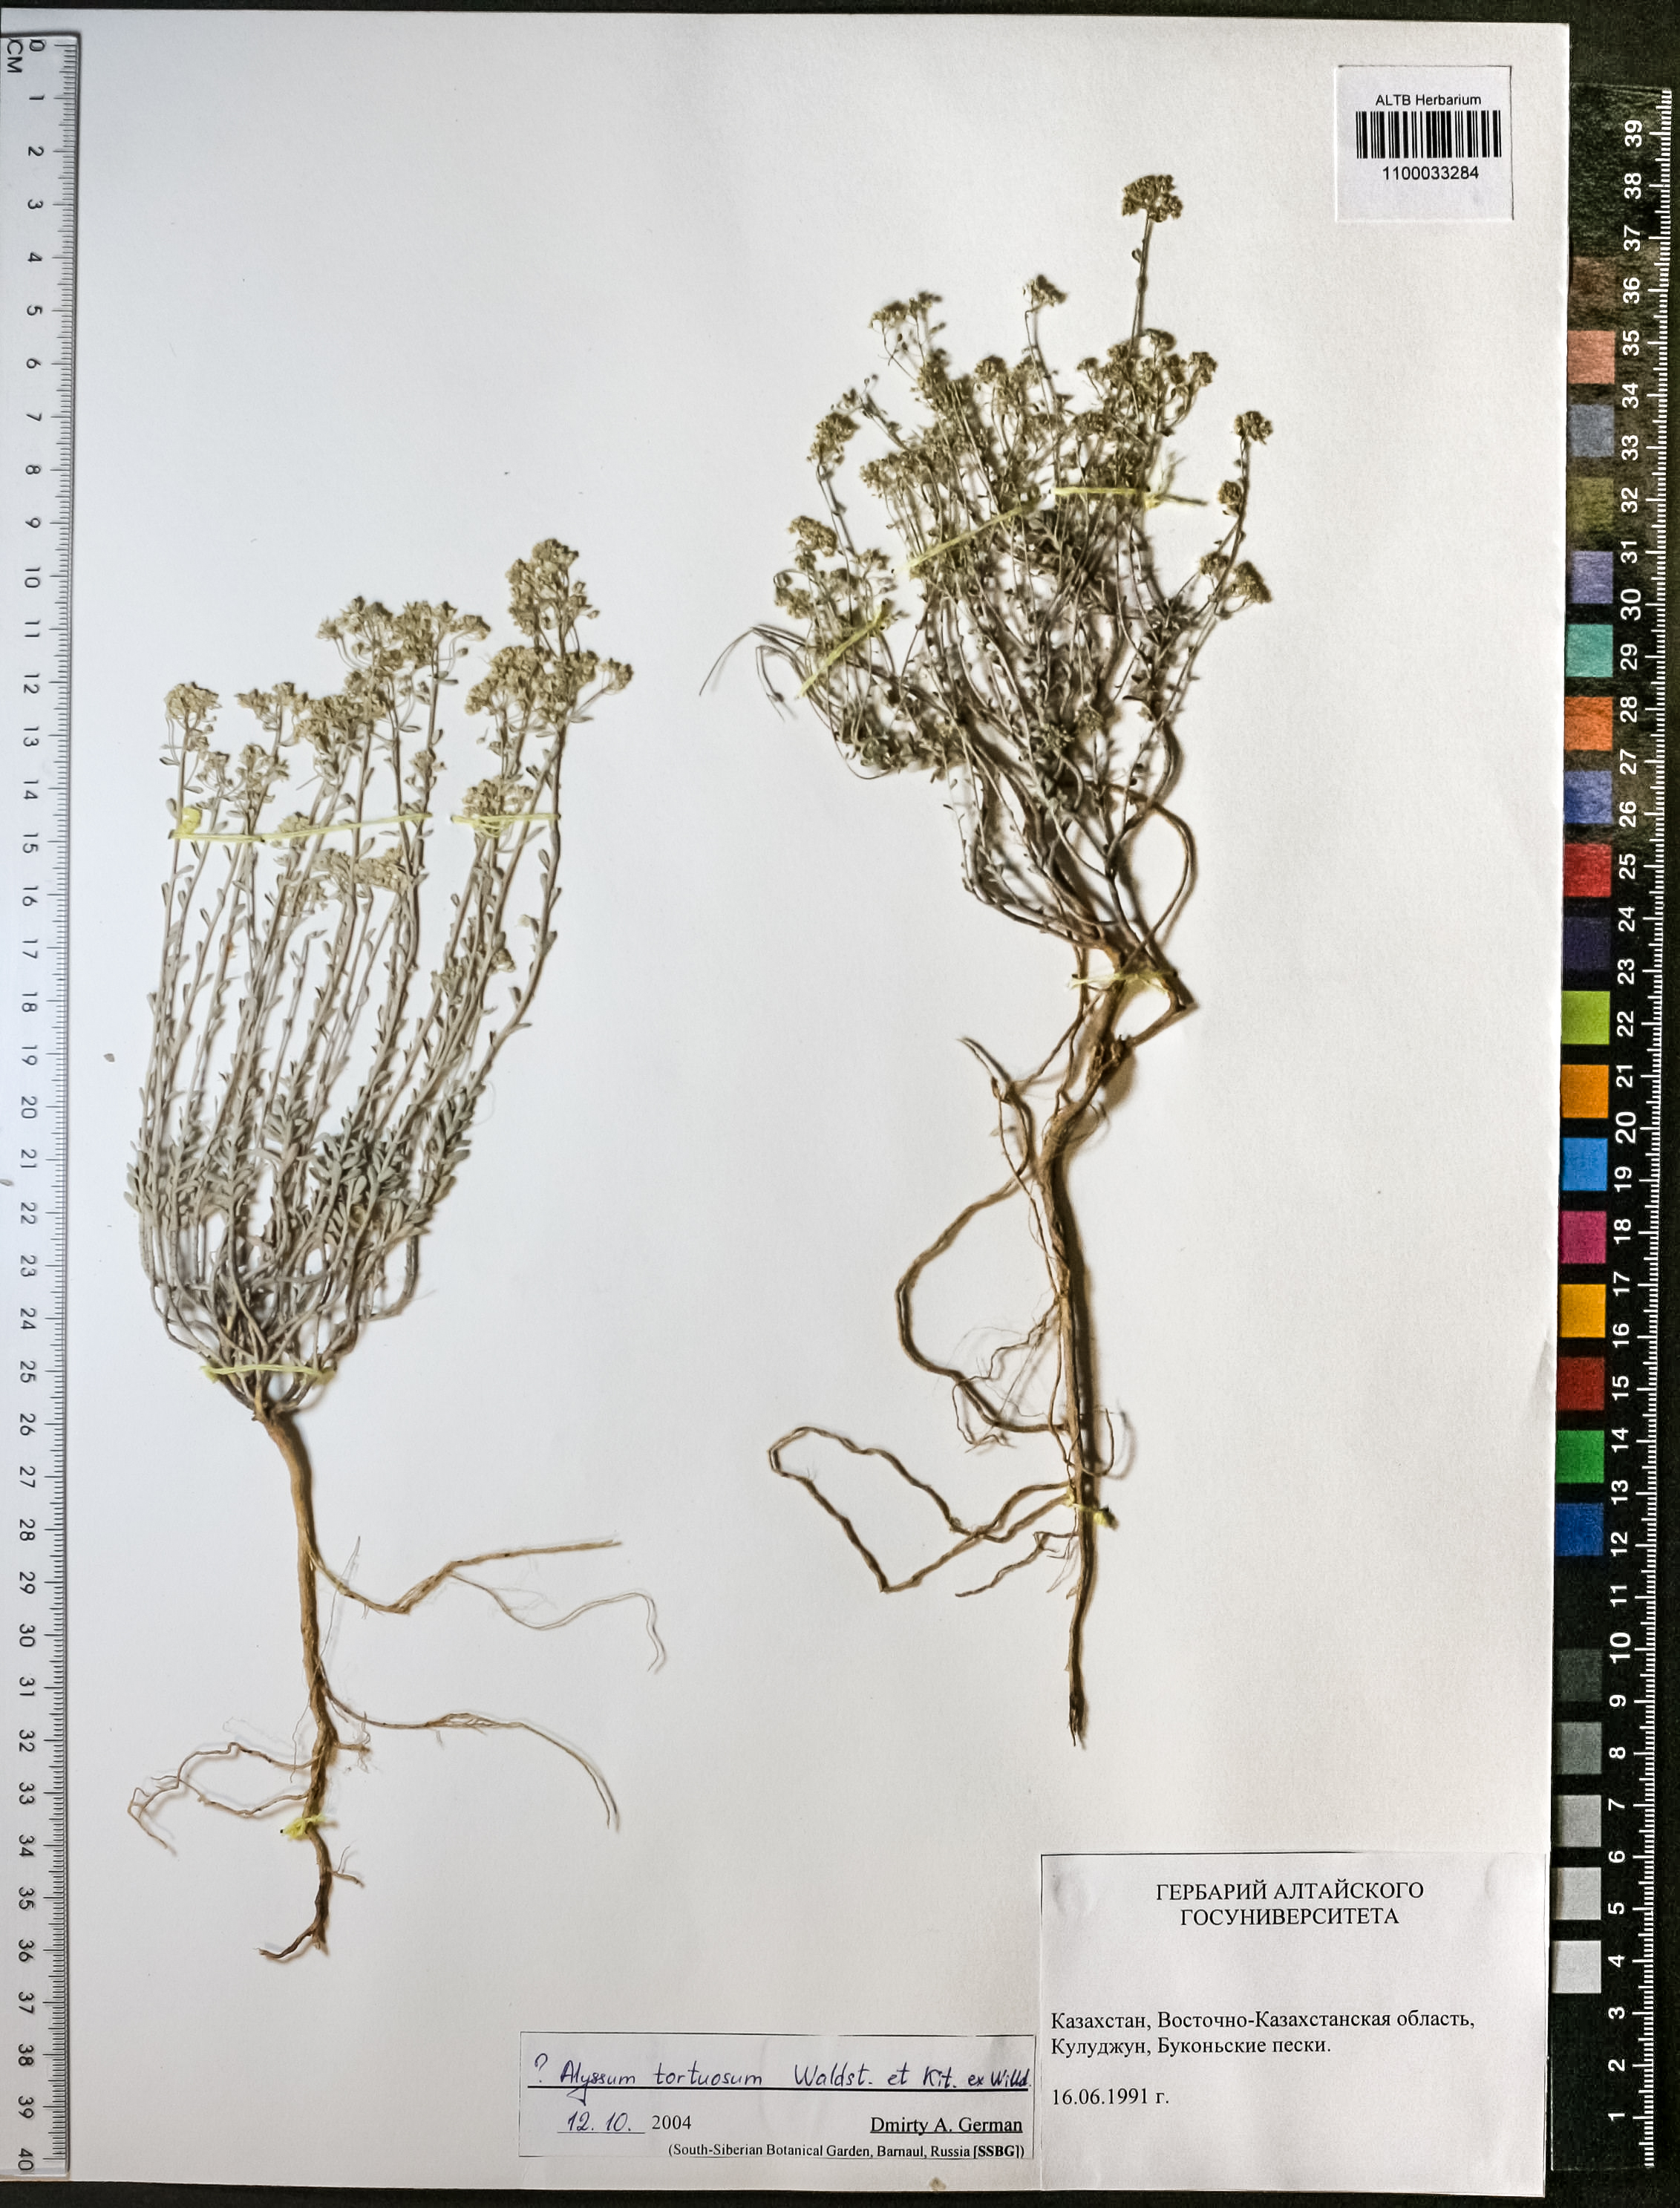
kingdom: Plantae
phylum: Tracheophyta
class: Magnoliopsida
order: Brassicales
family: Brassicaceae
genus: Odontarrhena
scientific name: Odontarrhena alpestris
